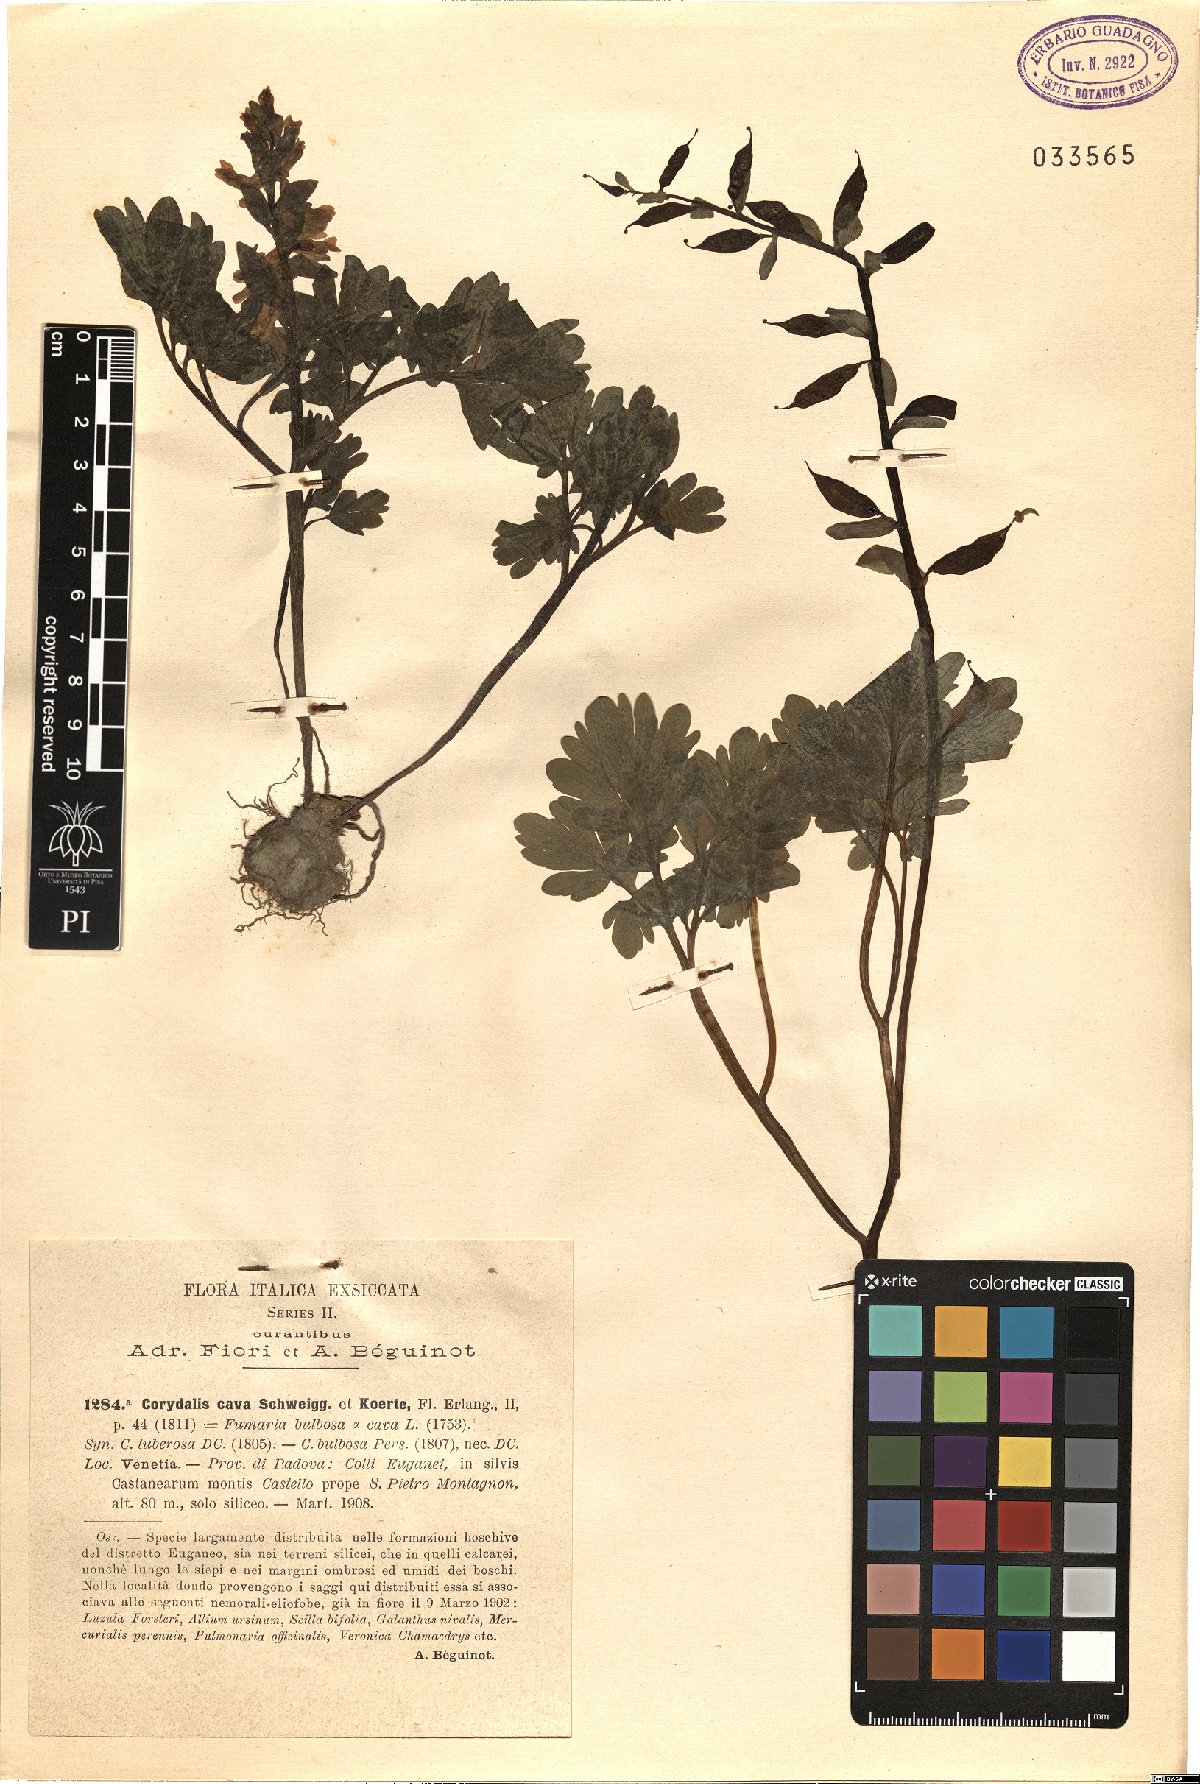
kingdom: Plantae
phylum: Tracheophyta
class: Magnoliopsida
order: Ranunculales
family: Papaveraceae
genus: Corydalis
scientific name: Corydalis cava
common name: Hollowroot
